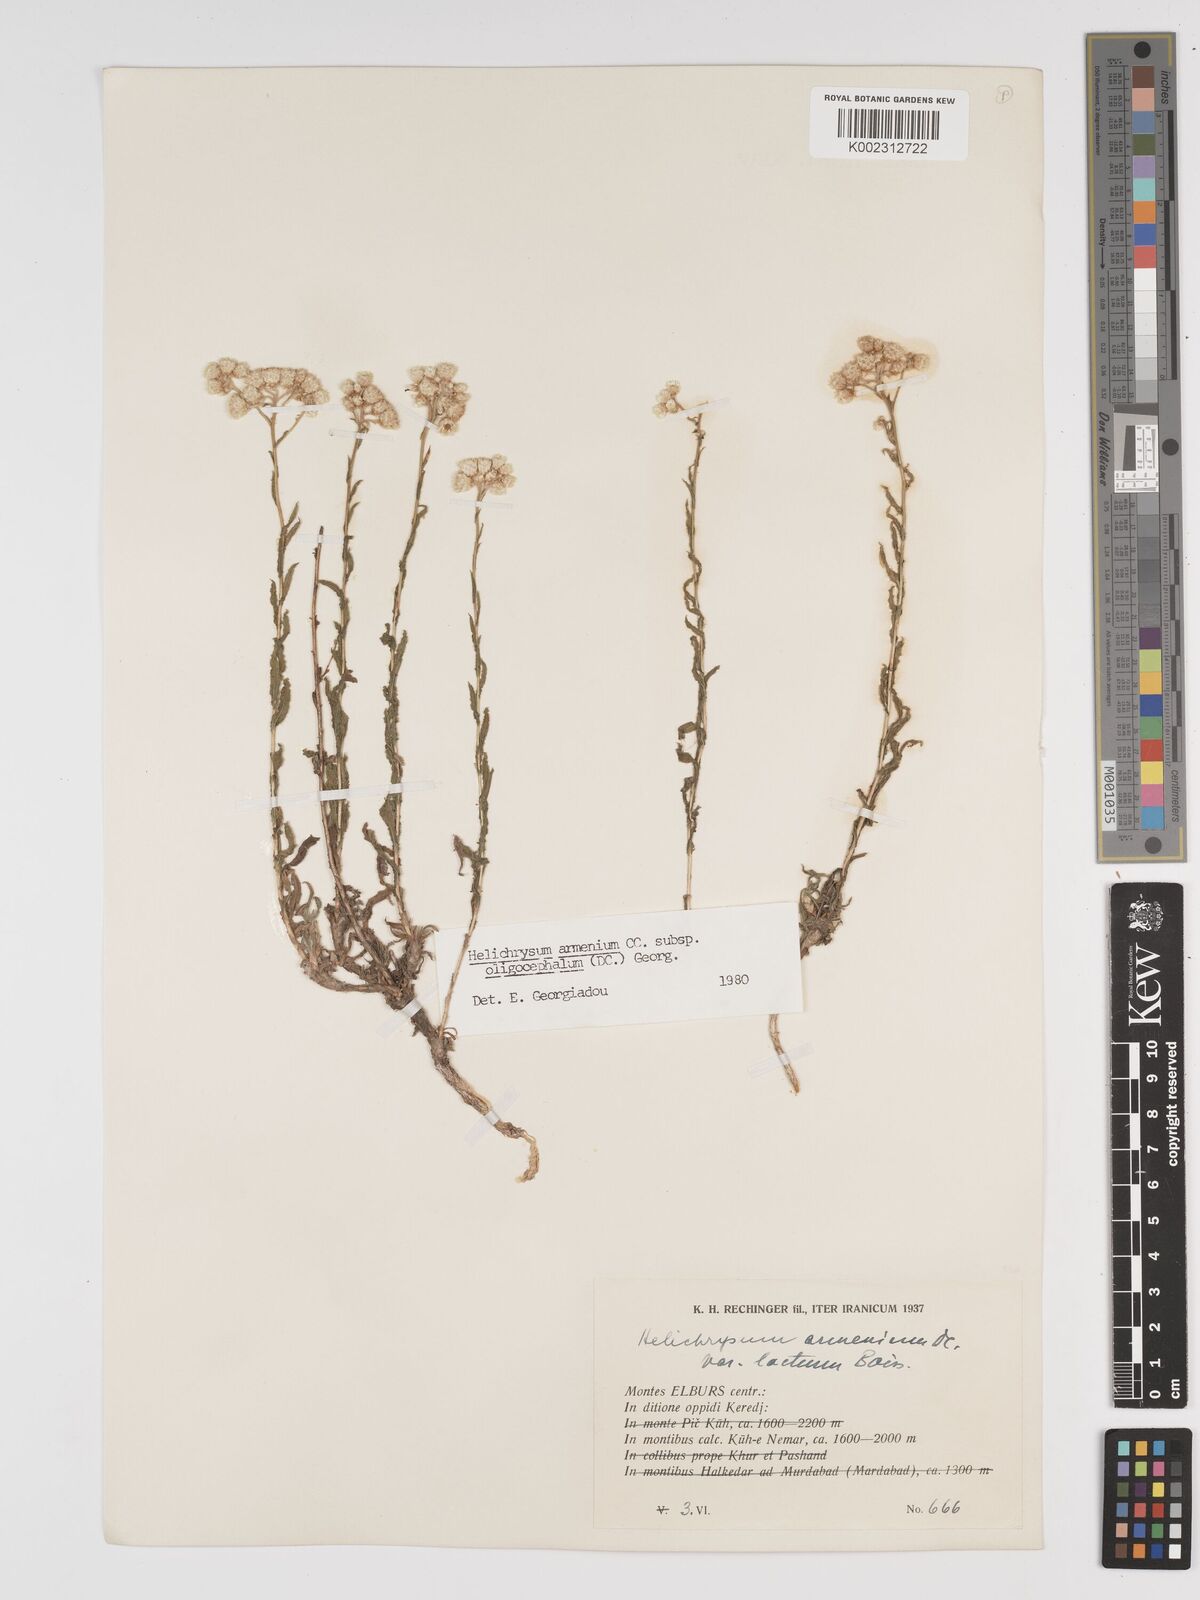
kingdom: Plantae
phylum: Tracheophyta
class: Magnoliopsida
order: Asterales
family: Asteraceae
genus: Helichrysum
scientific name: Helichrysum armenium
